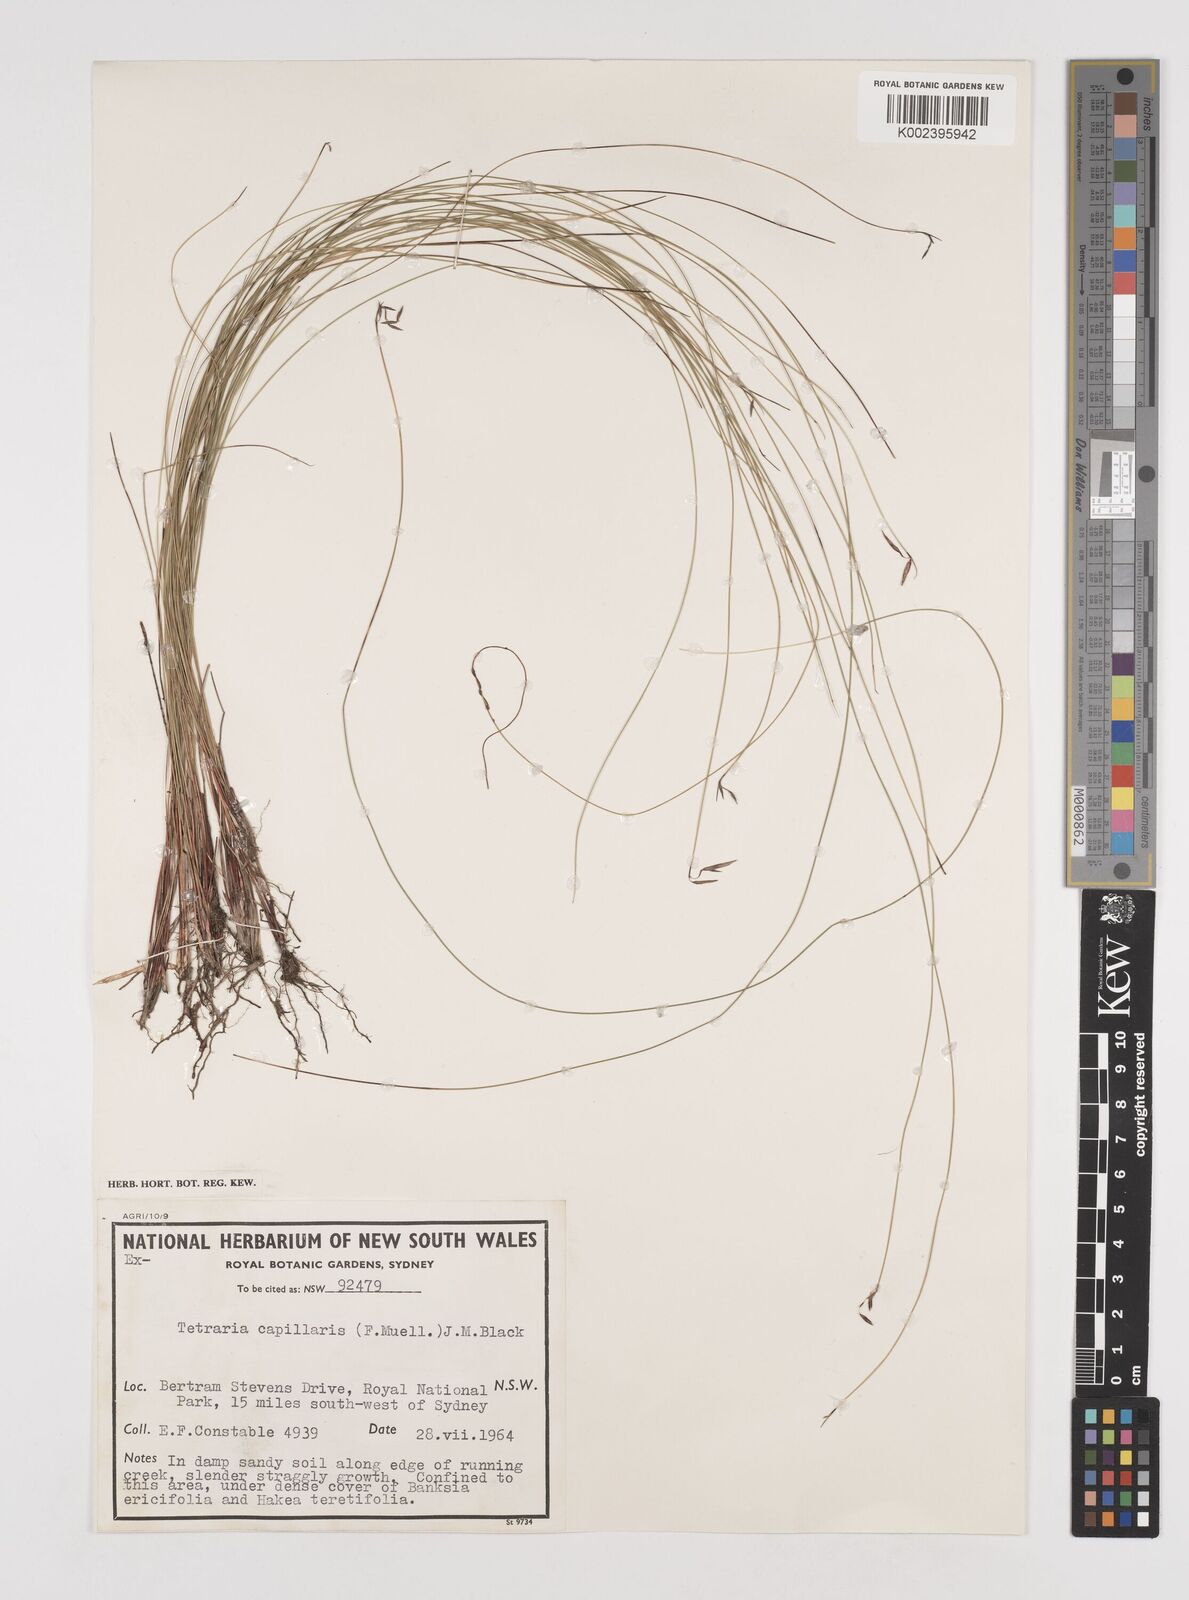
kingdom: Plantae
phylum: Tracheophyta
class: Liliopsida
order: Poales
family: Cyperaceae
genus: Tetraria
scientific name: Tetraria capillaris
